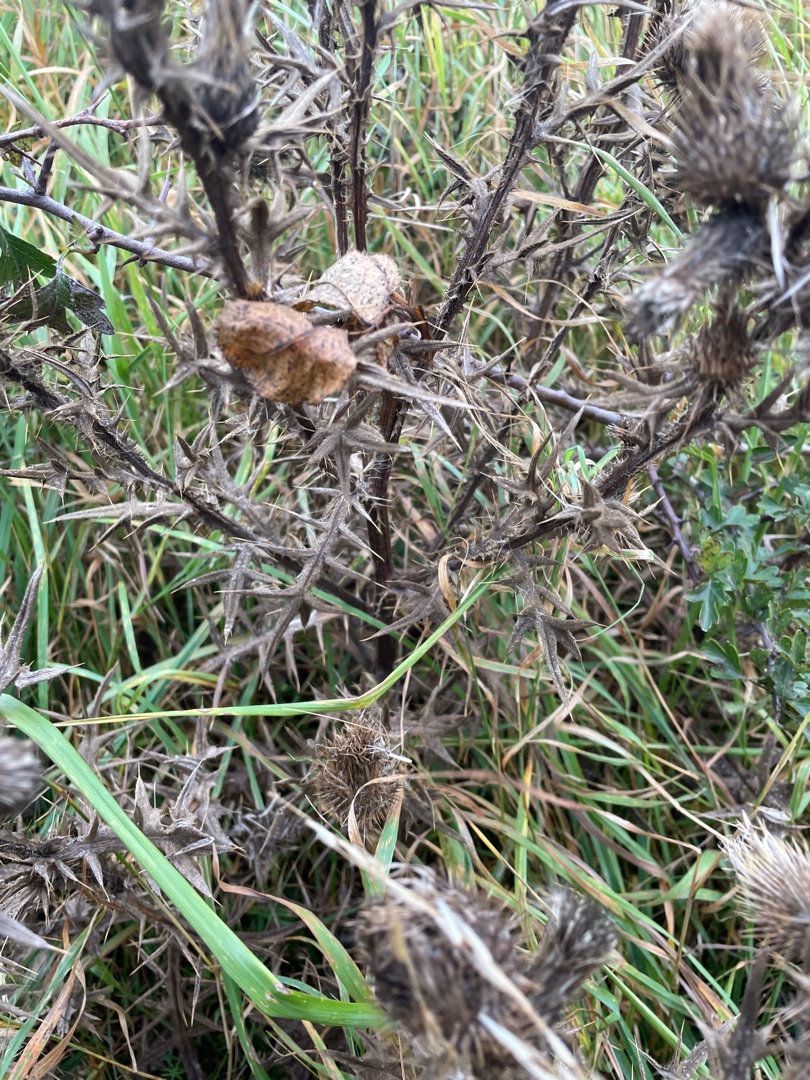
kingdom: Plantae
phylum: Tracheophyta
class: Magnoliopsida
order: Asterales
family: Asteraceae
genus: Cirsium
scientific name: Cirsium vulgare
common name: Horse-tidsel
